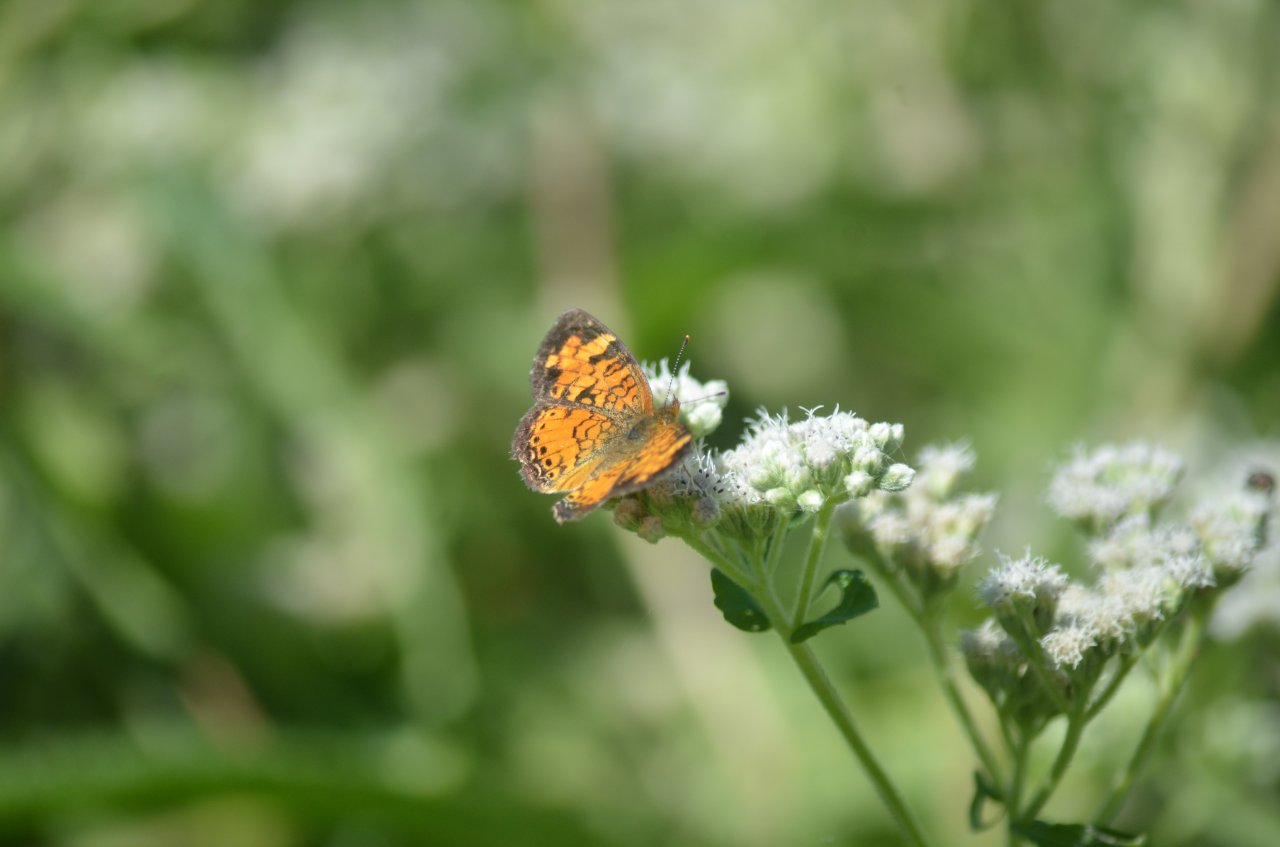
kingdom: Animalia
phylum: Arthropoda
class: Insecta
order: Lepidoptera
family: Nymphalidae
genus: Phyciodes
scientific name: Phyciodes tharos
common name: Northern Crescent
